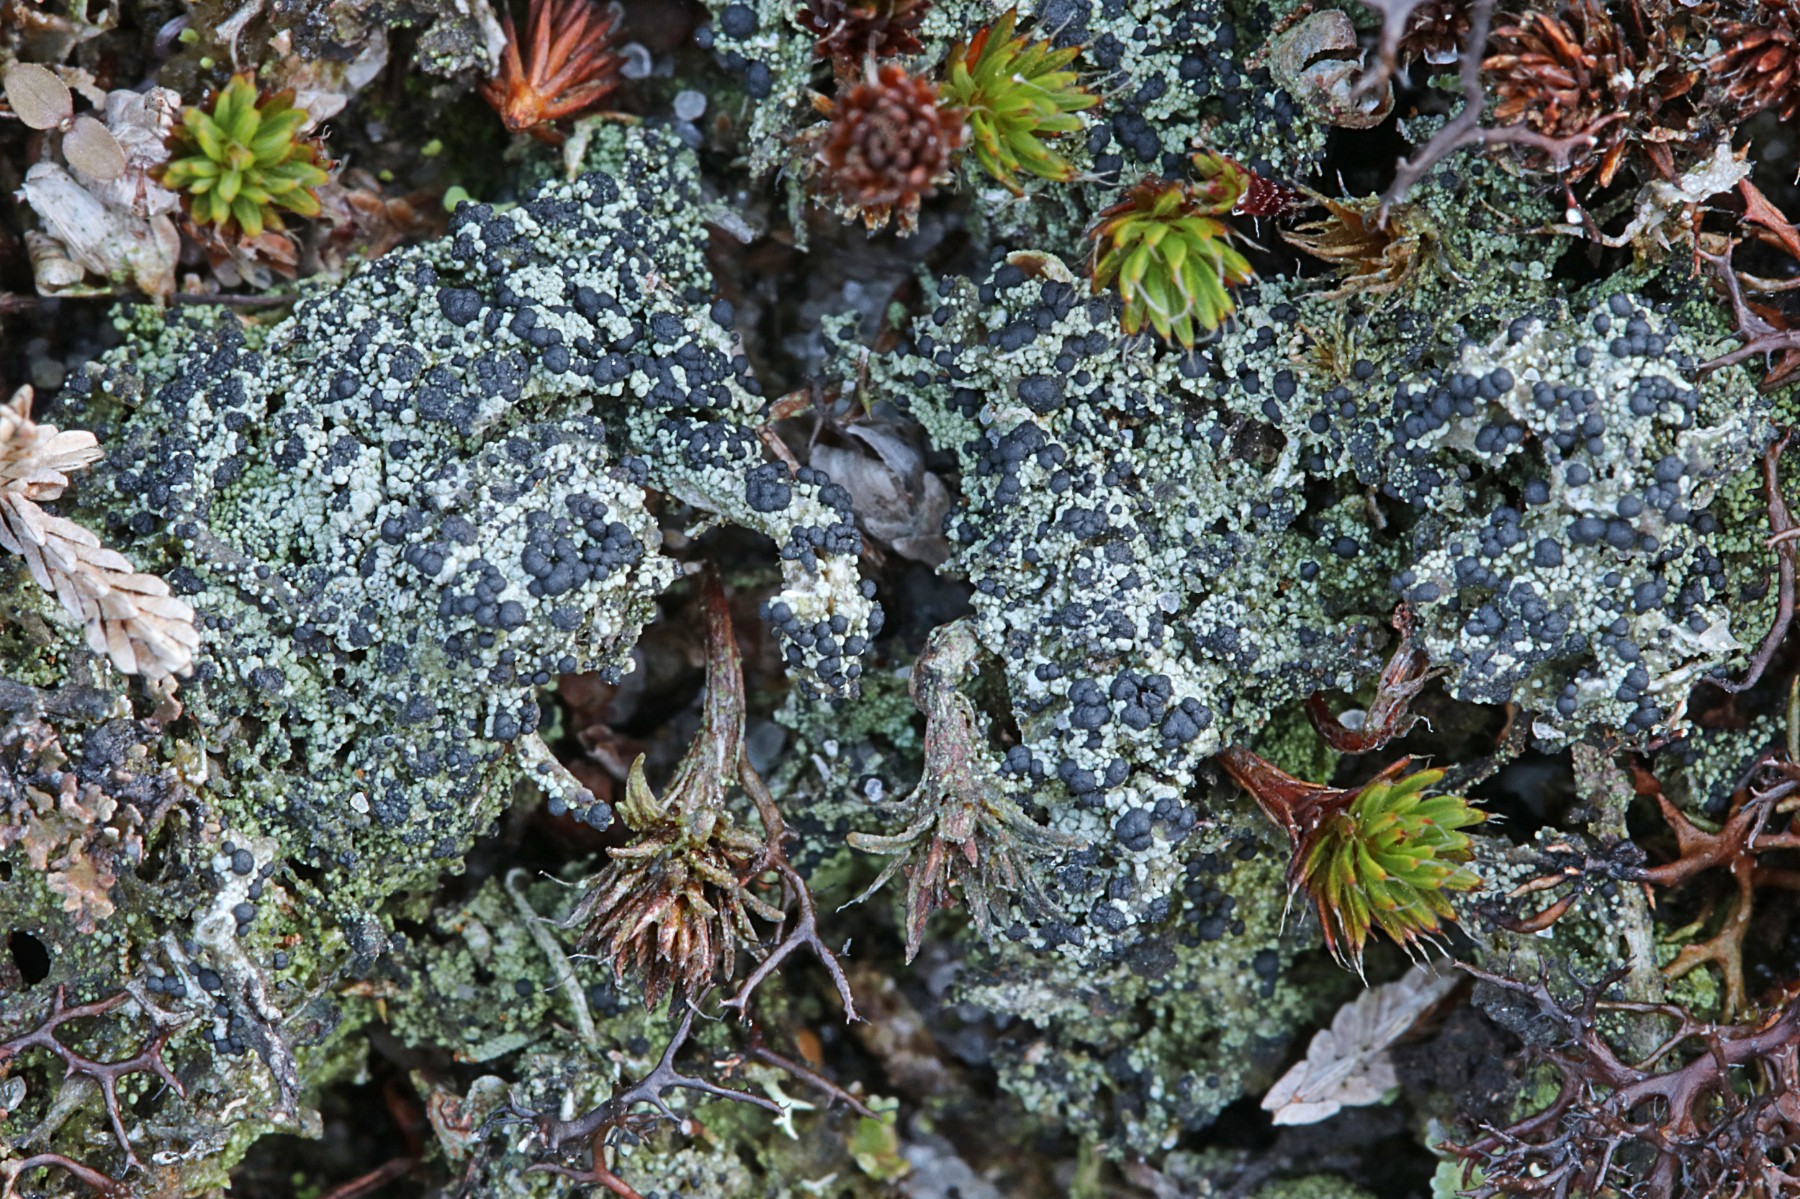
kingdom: Fungi
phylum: Ascomycota
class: Lecanoromycetes
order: Lecanorales
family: Byssolomataceae
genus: Micarea
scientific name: Micarea lignaria
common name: tørve-knaplav
